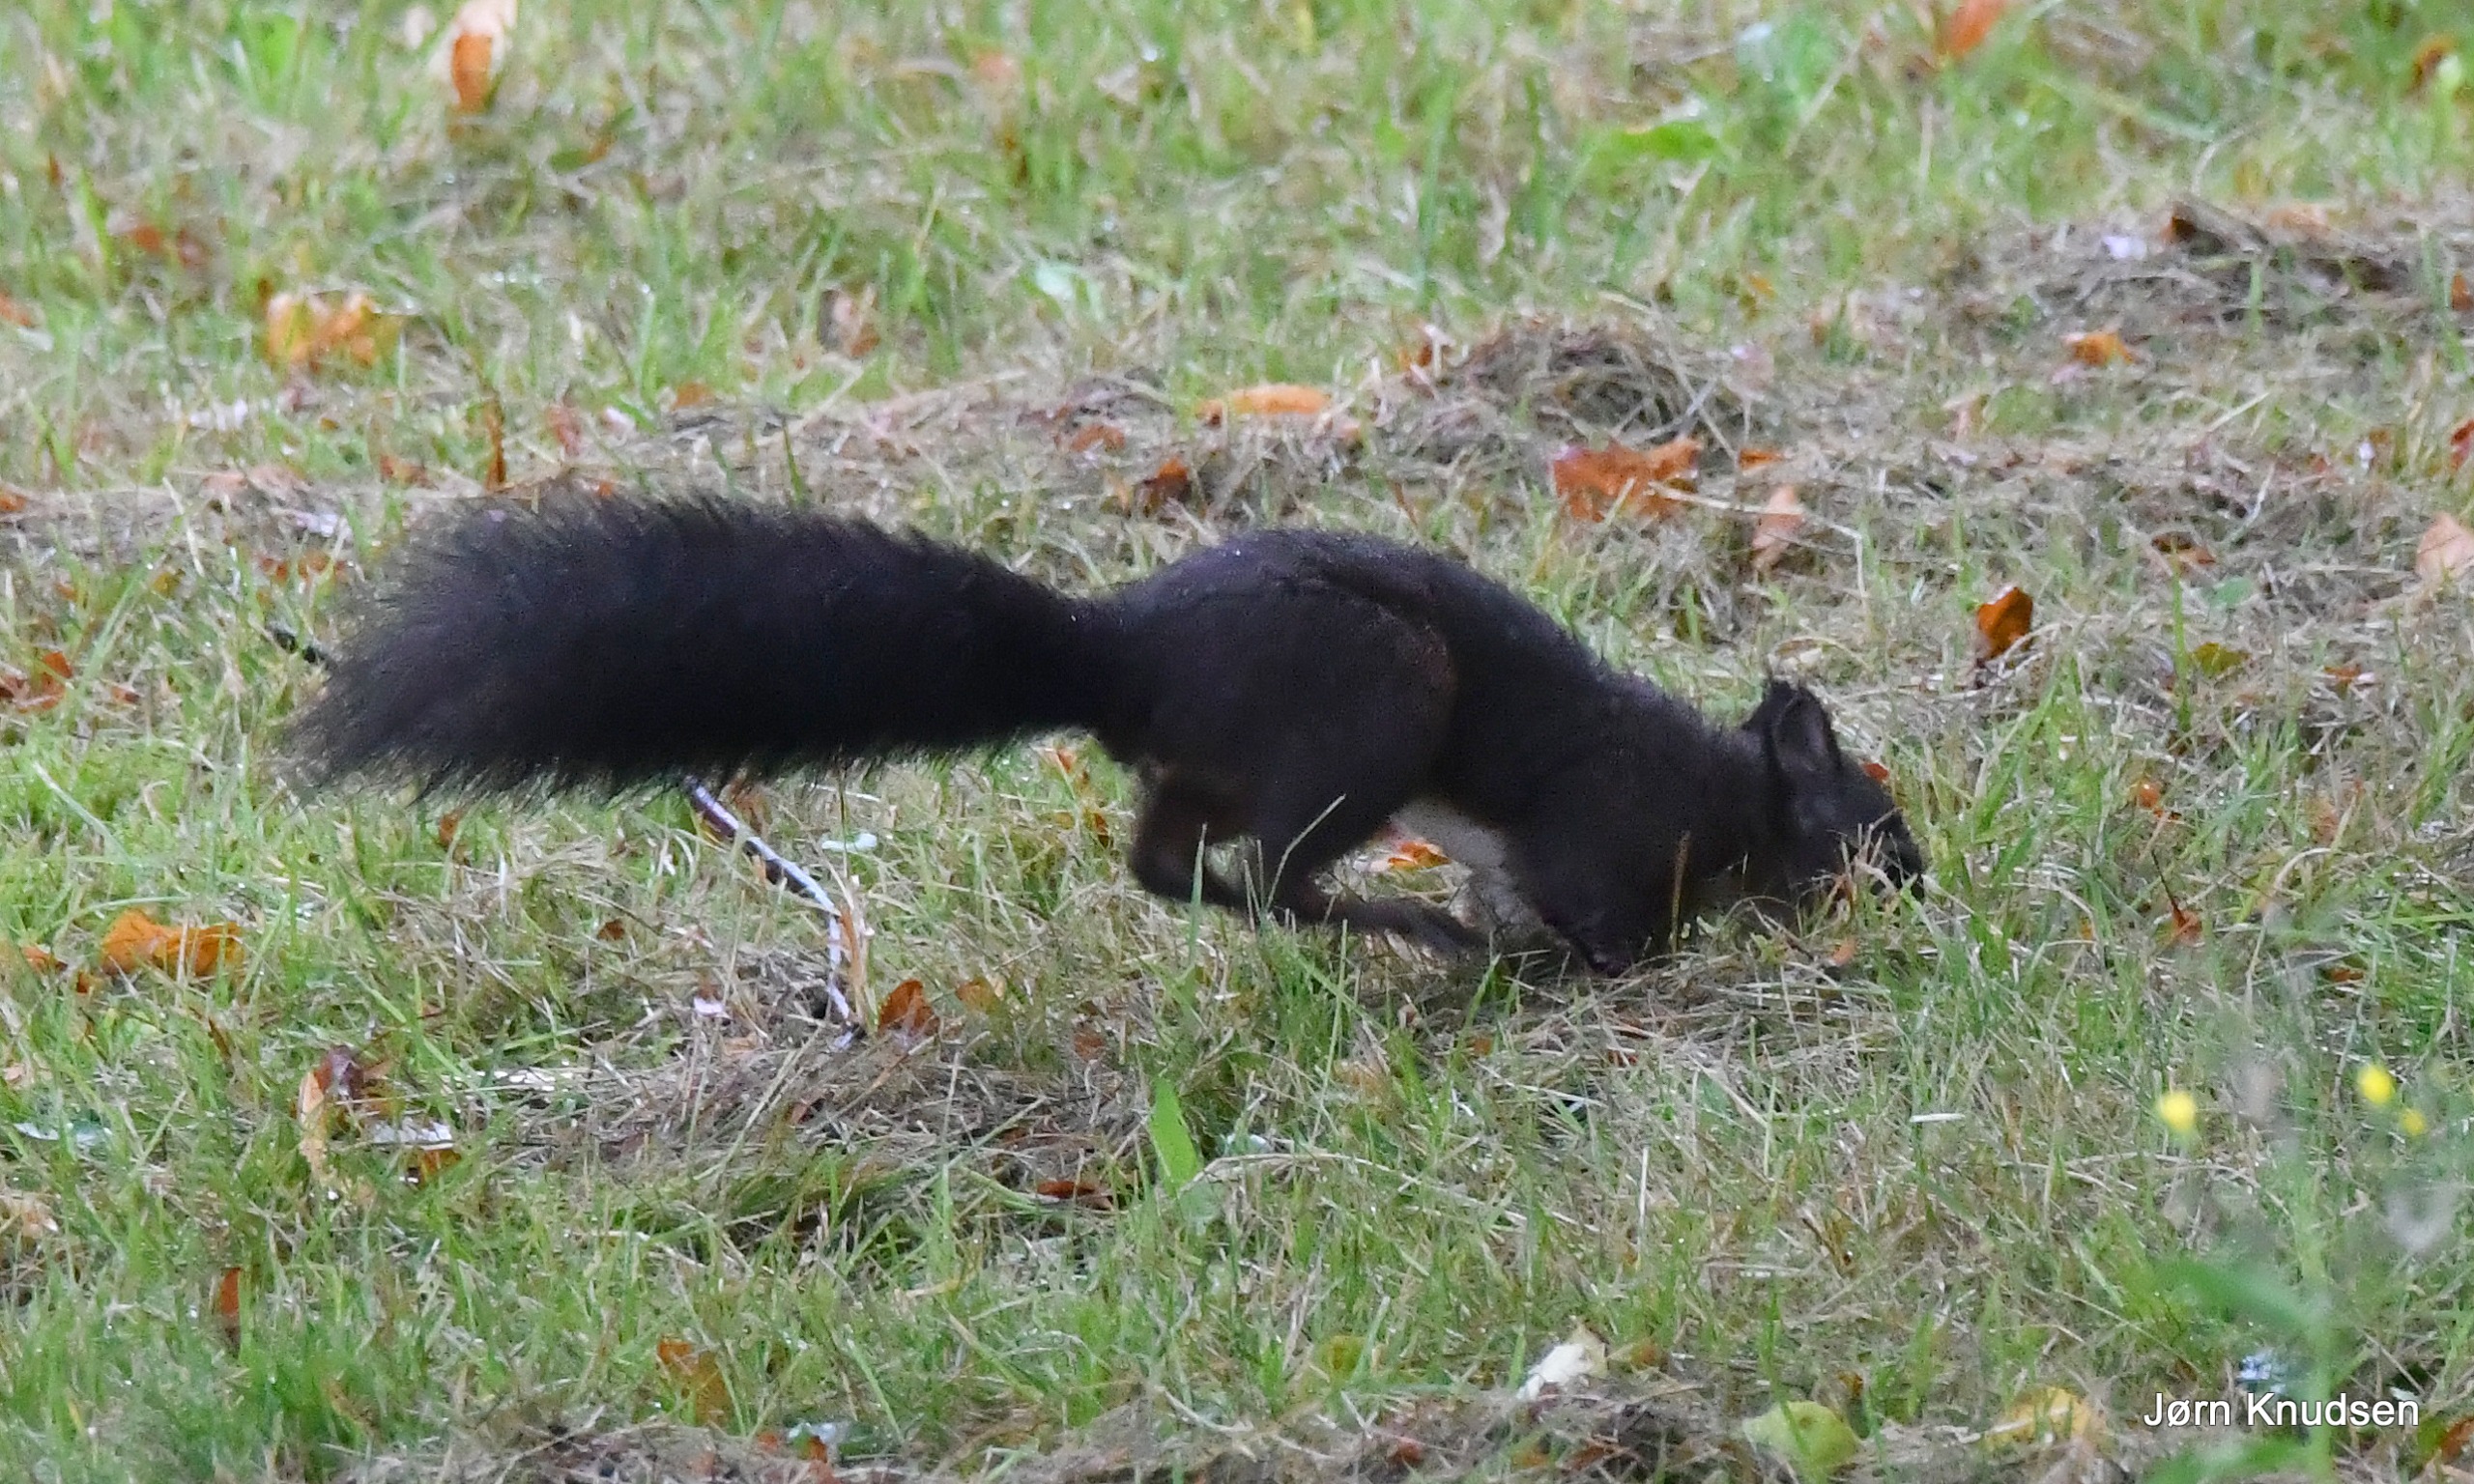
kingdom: Animalia
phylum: Chordata
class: Mammalia
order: Rodentia
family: Sciuridae
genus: Sciurus
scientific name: Sciurus vulgaris
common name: Egern
